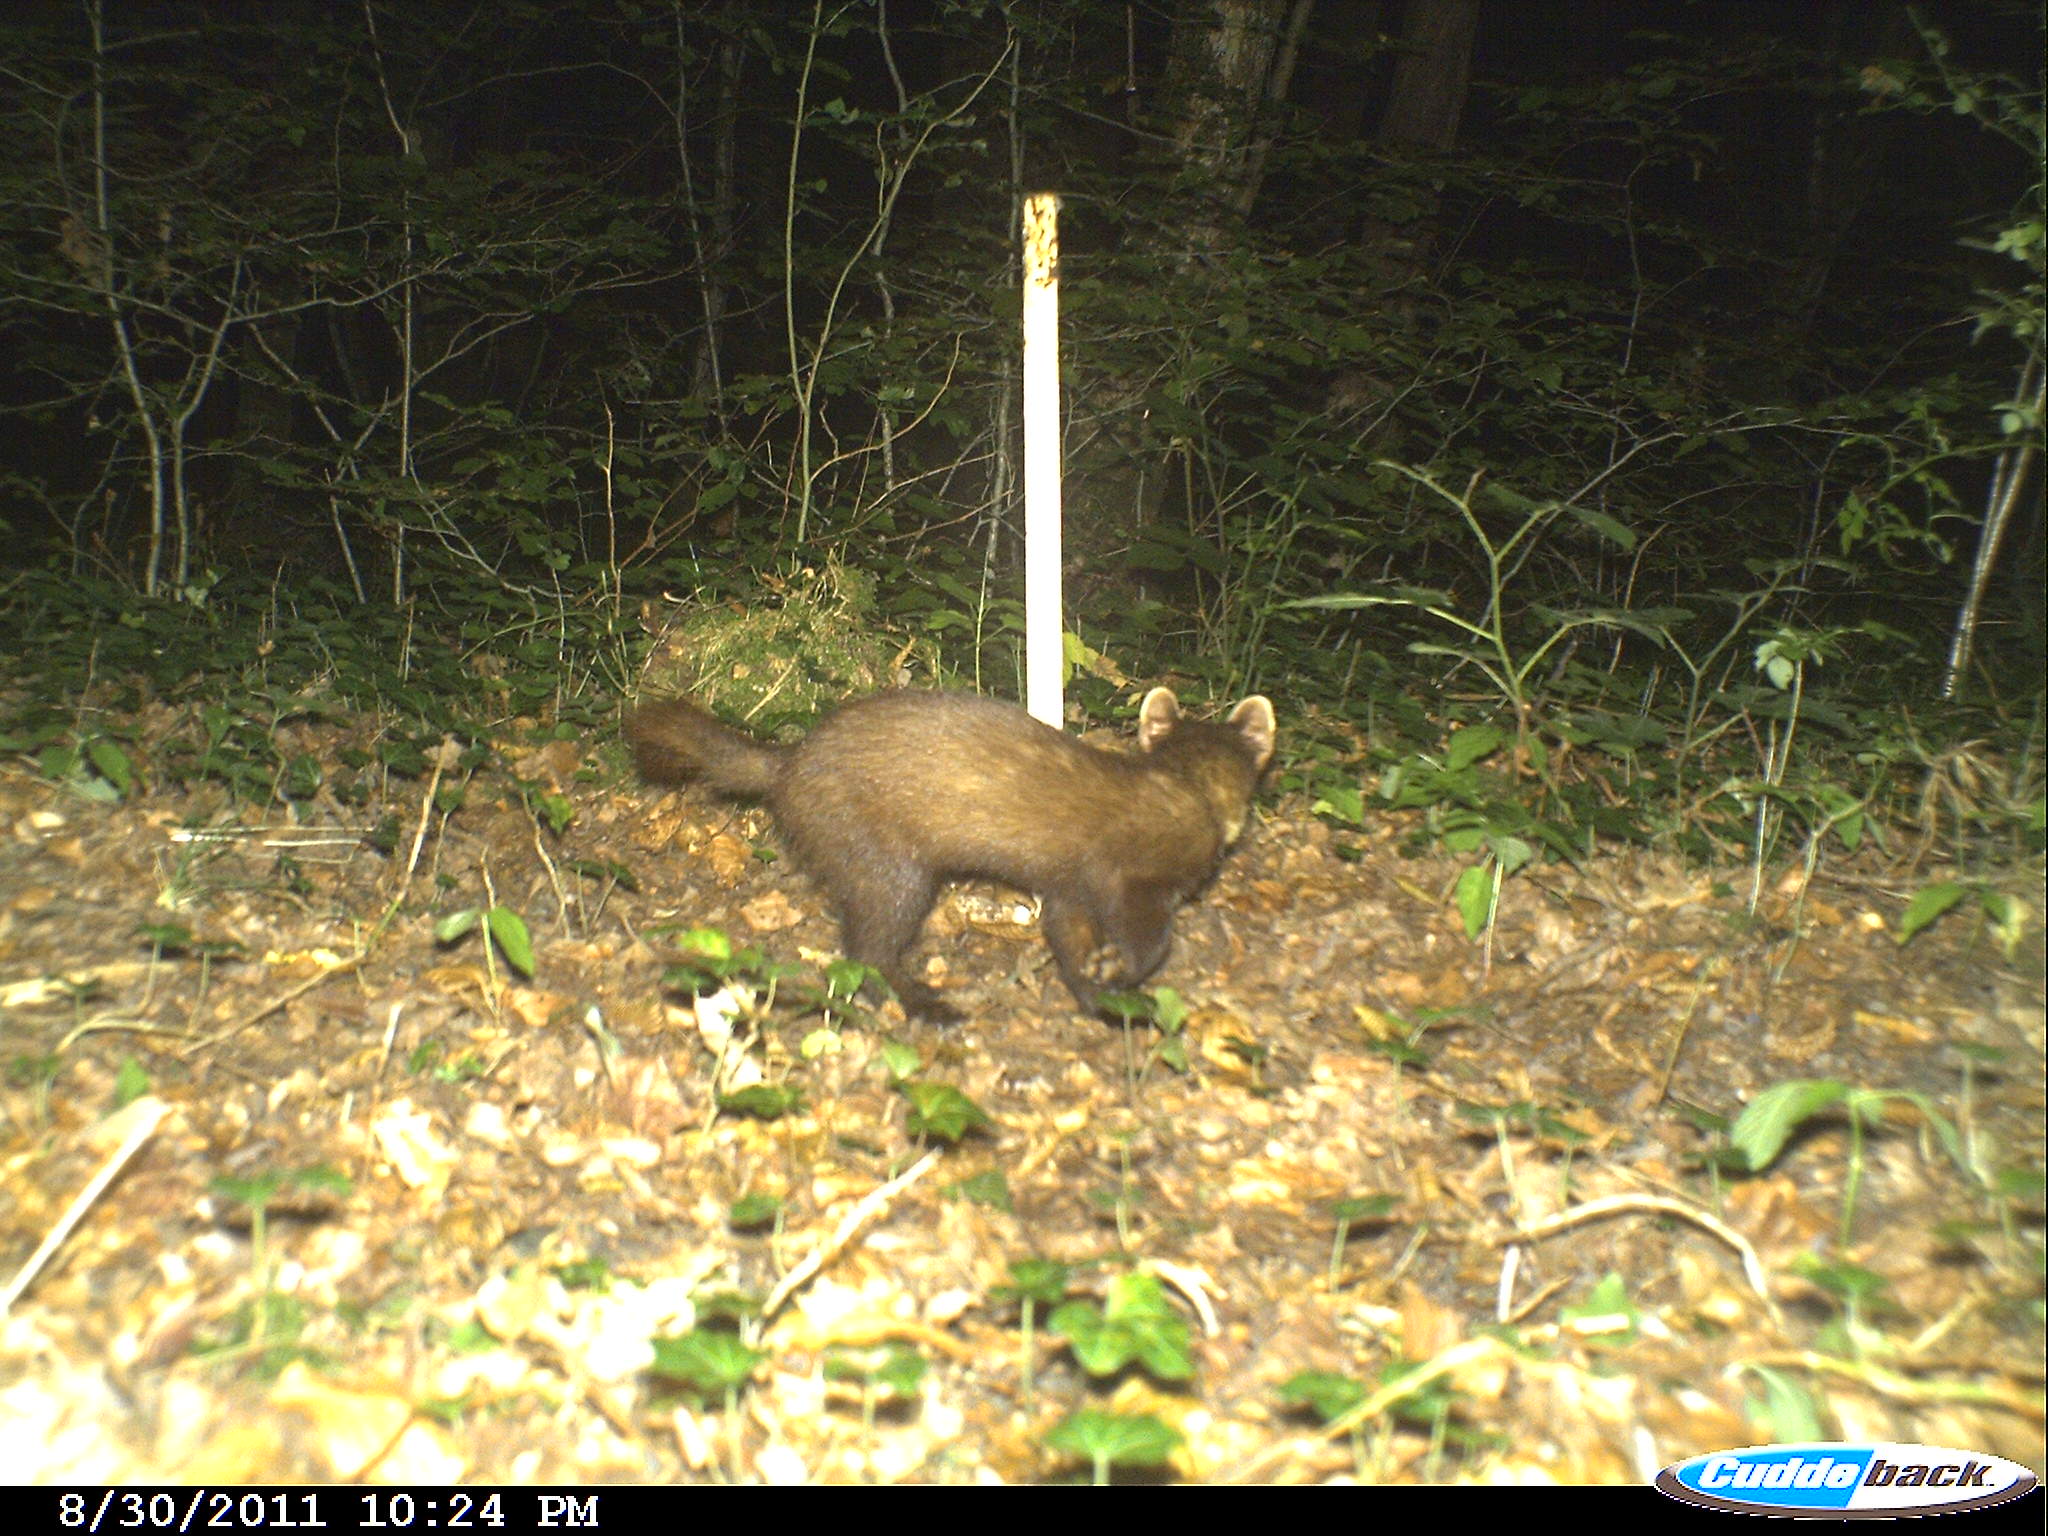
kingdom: Animalia
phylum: Chordata
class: Mammalia
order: Carnivora
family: Mustelidae
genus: Martes
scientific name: Martes martes
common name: European pine marten
